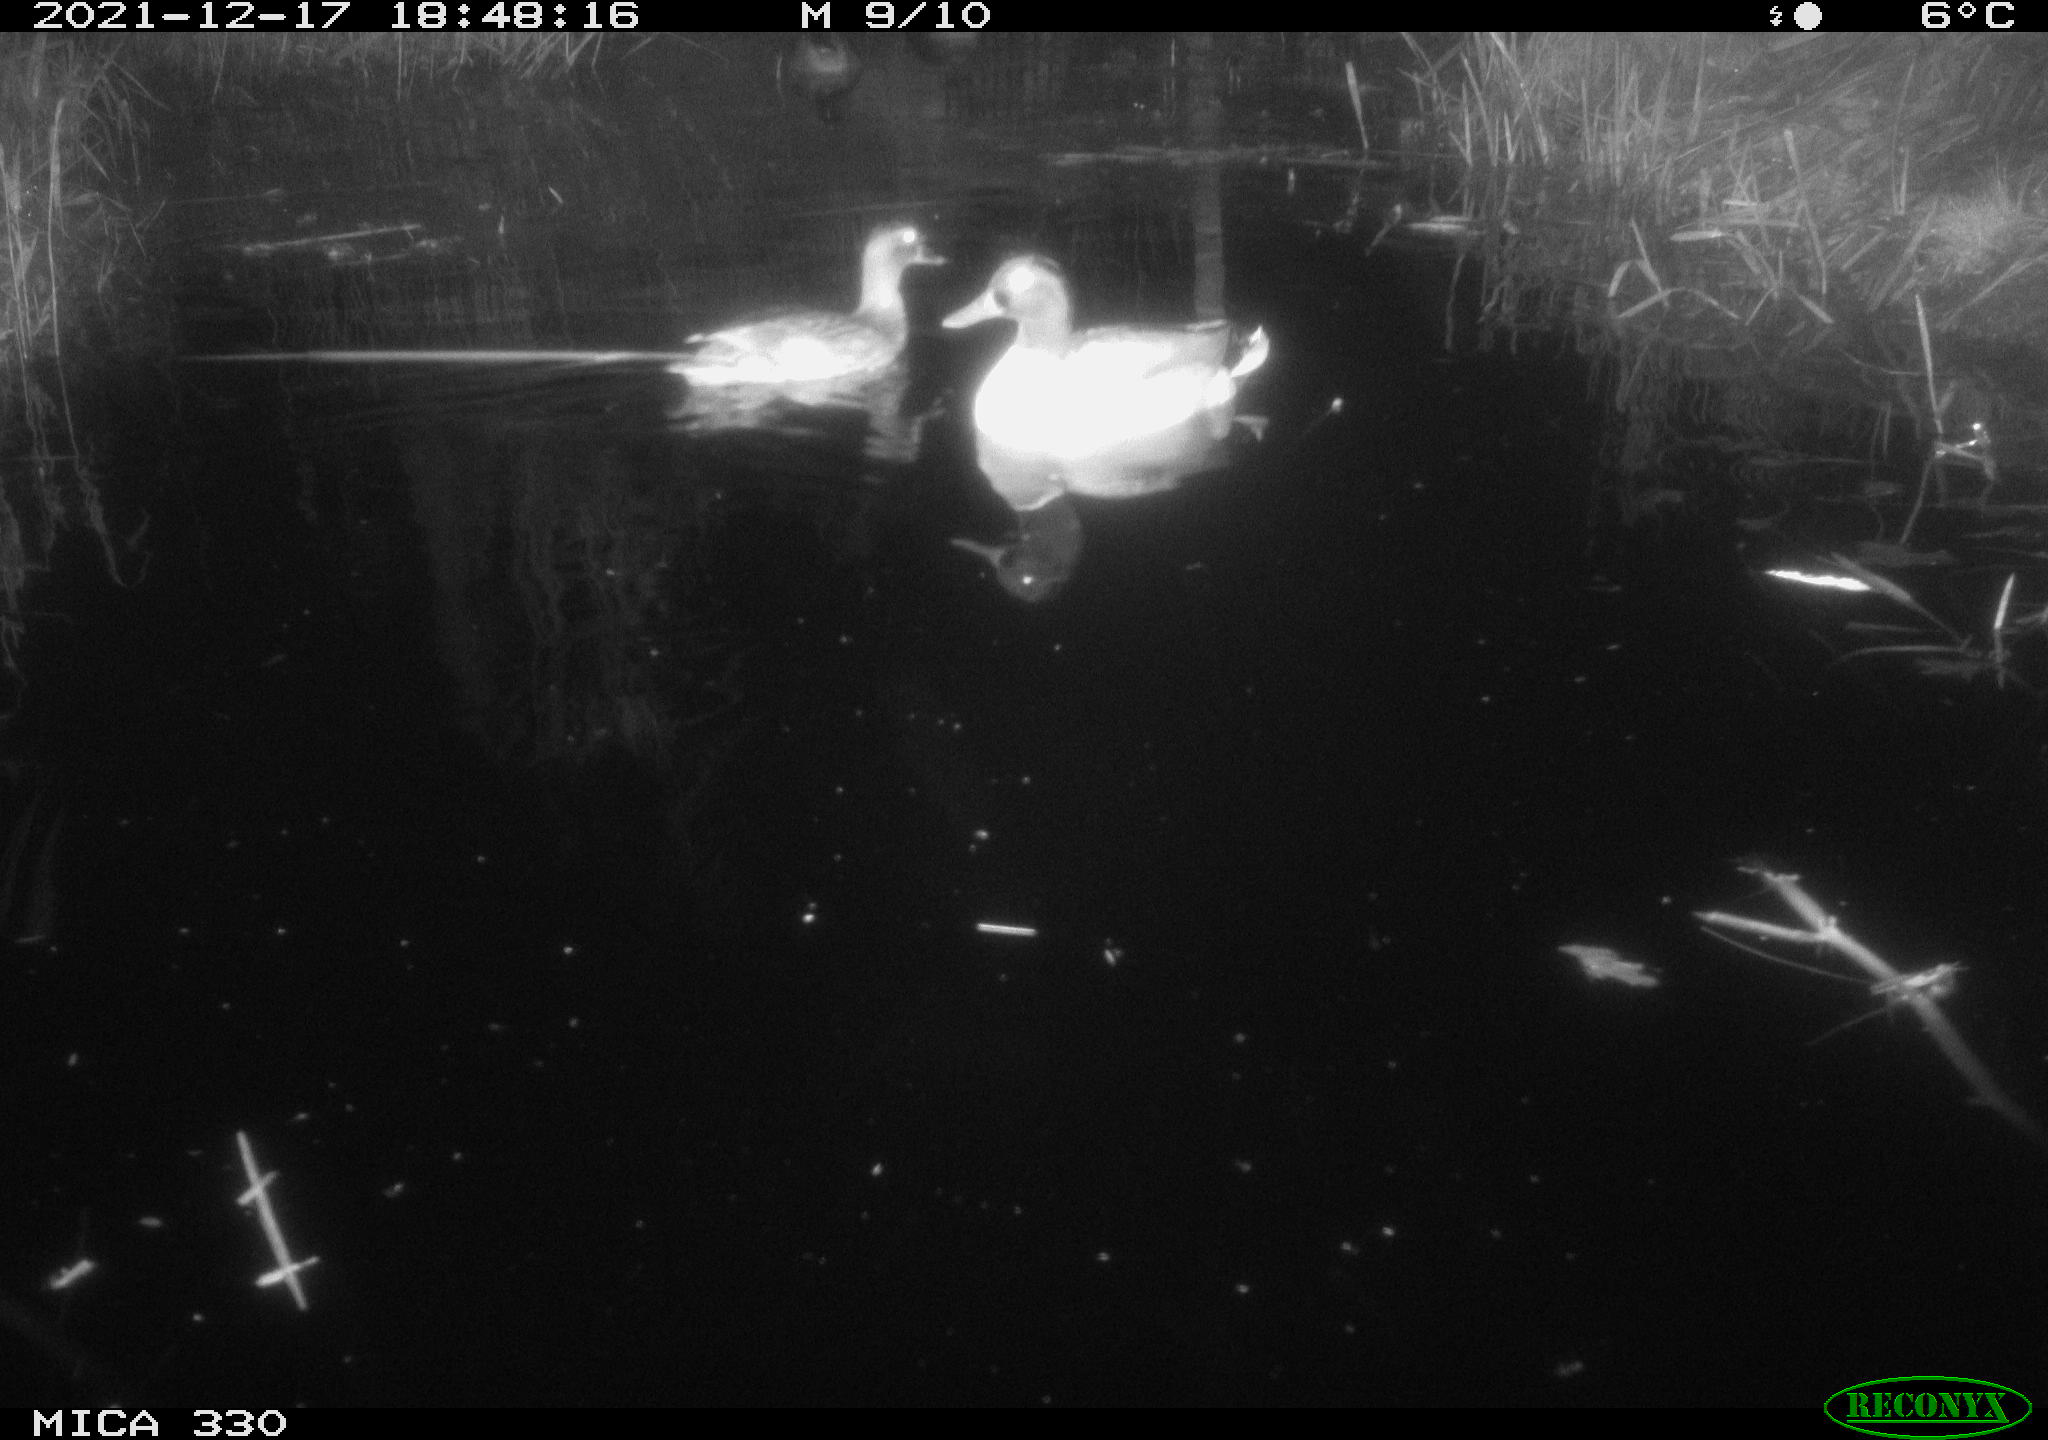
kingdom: Animalia
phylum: Chordata
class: Aves
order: Anseriformes
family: Anatidae
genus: Anas
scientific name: Anas platyrhynchos
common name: Mallard
